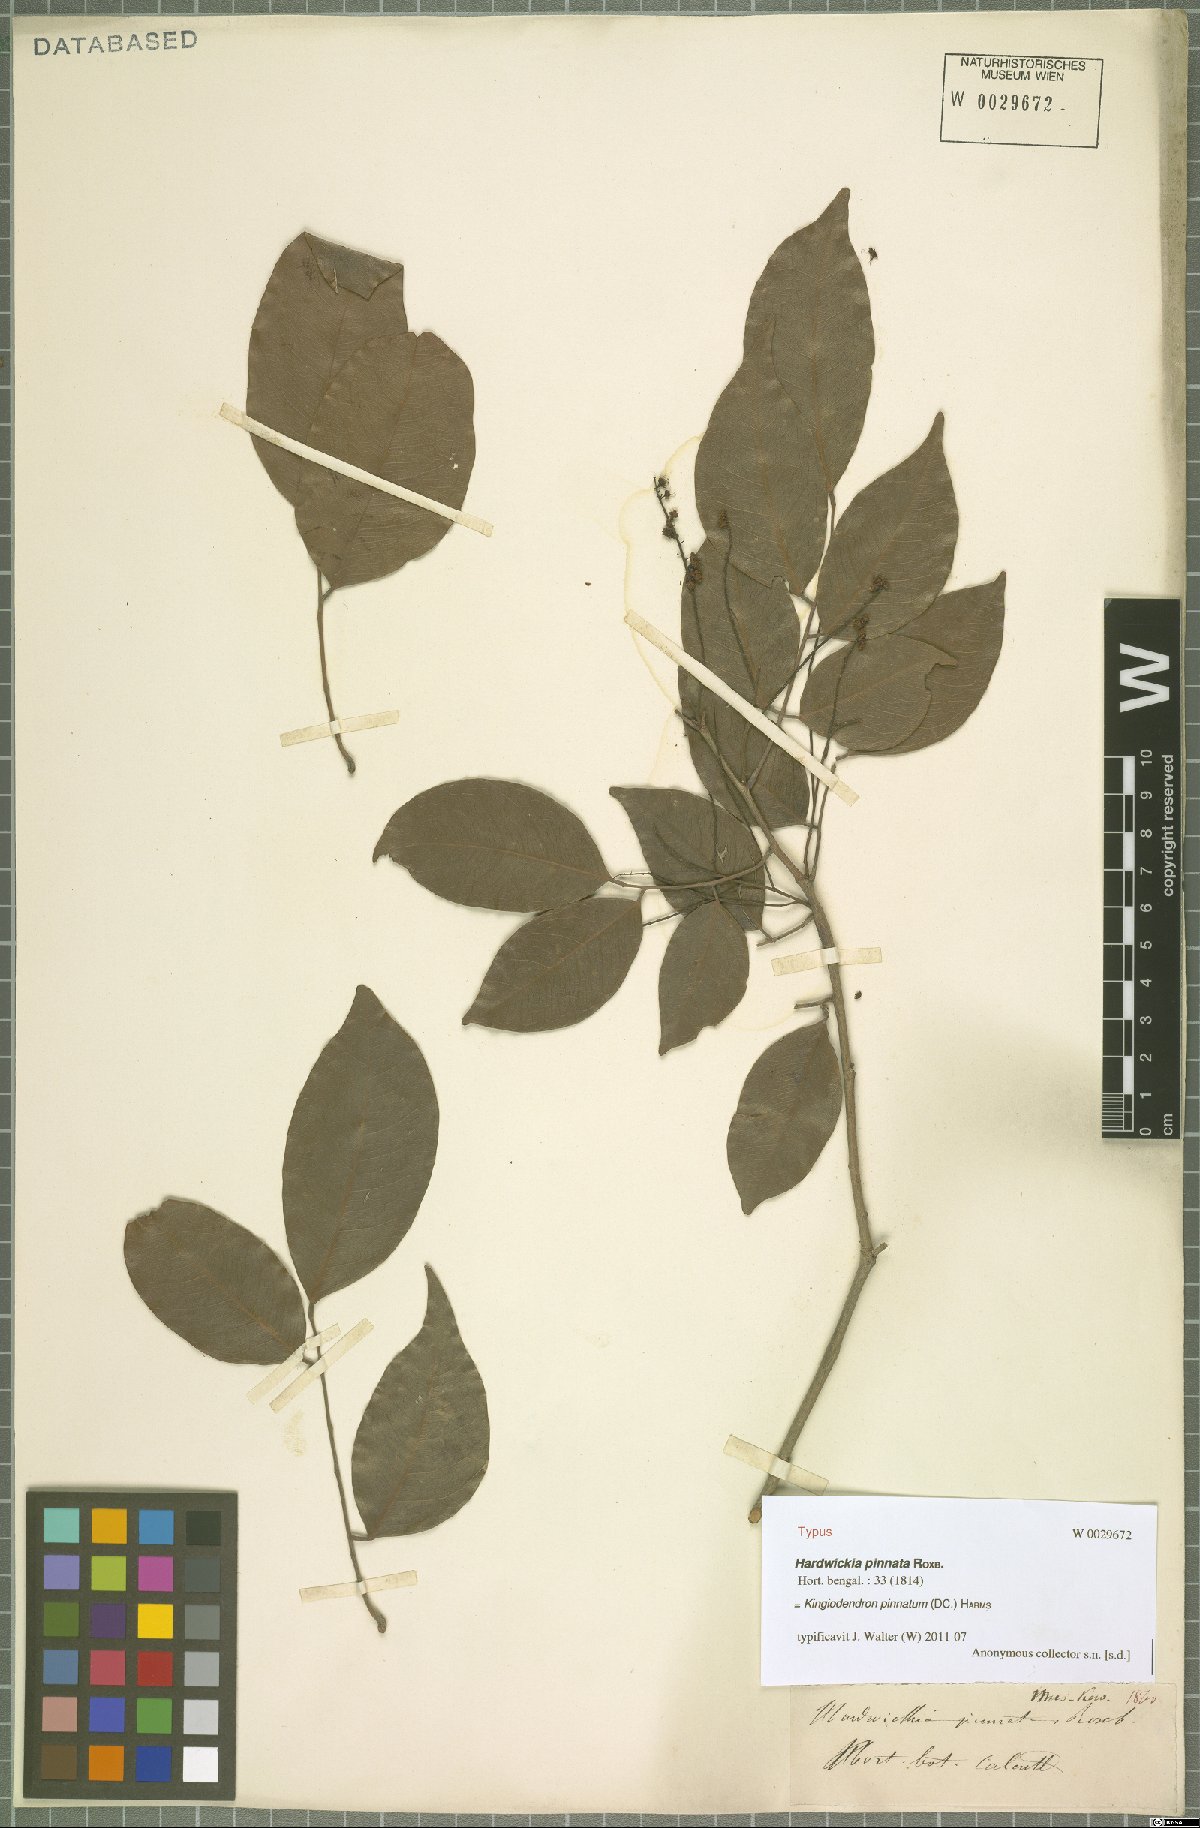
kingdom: Plantae
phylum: Tracheophyta
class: Magnoliopsida
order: Fabales
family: Fabaceae
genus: Prioria
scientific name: Prioria pinnata
